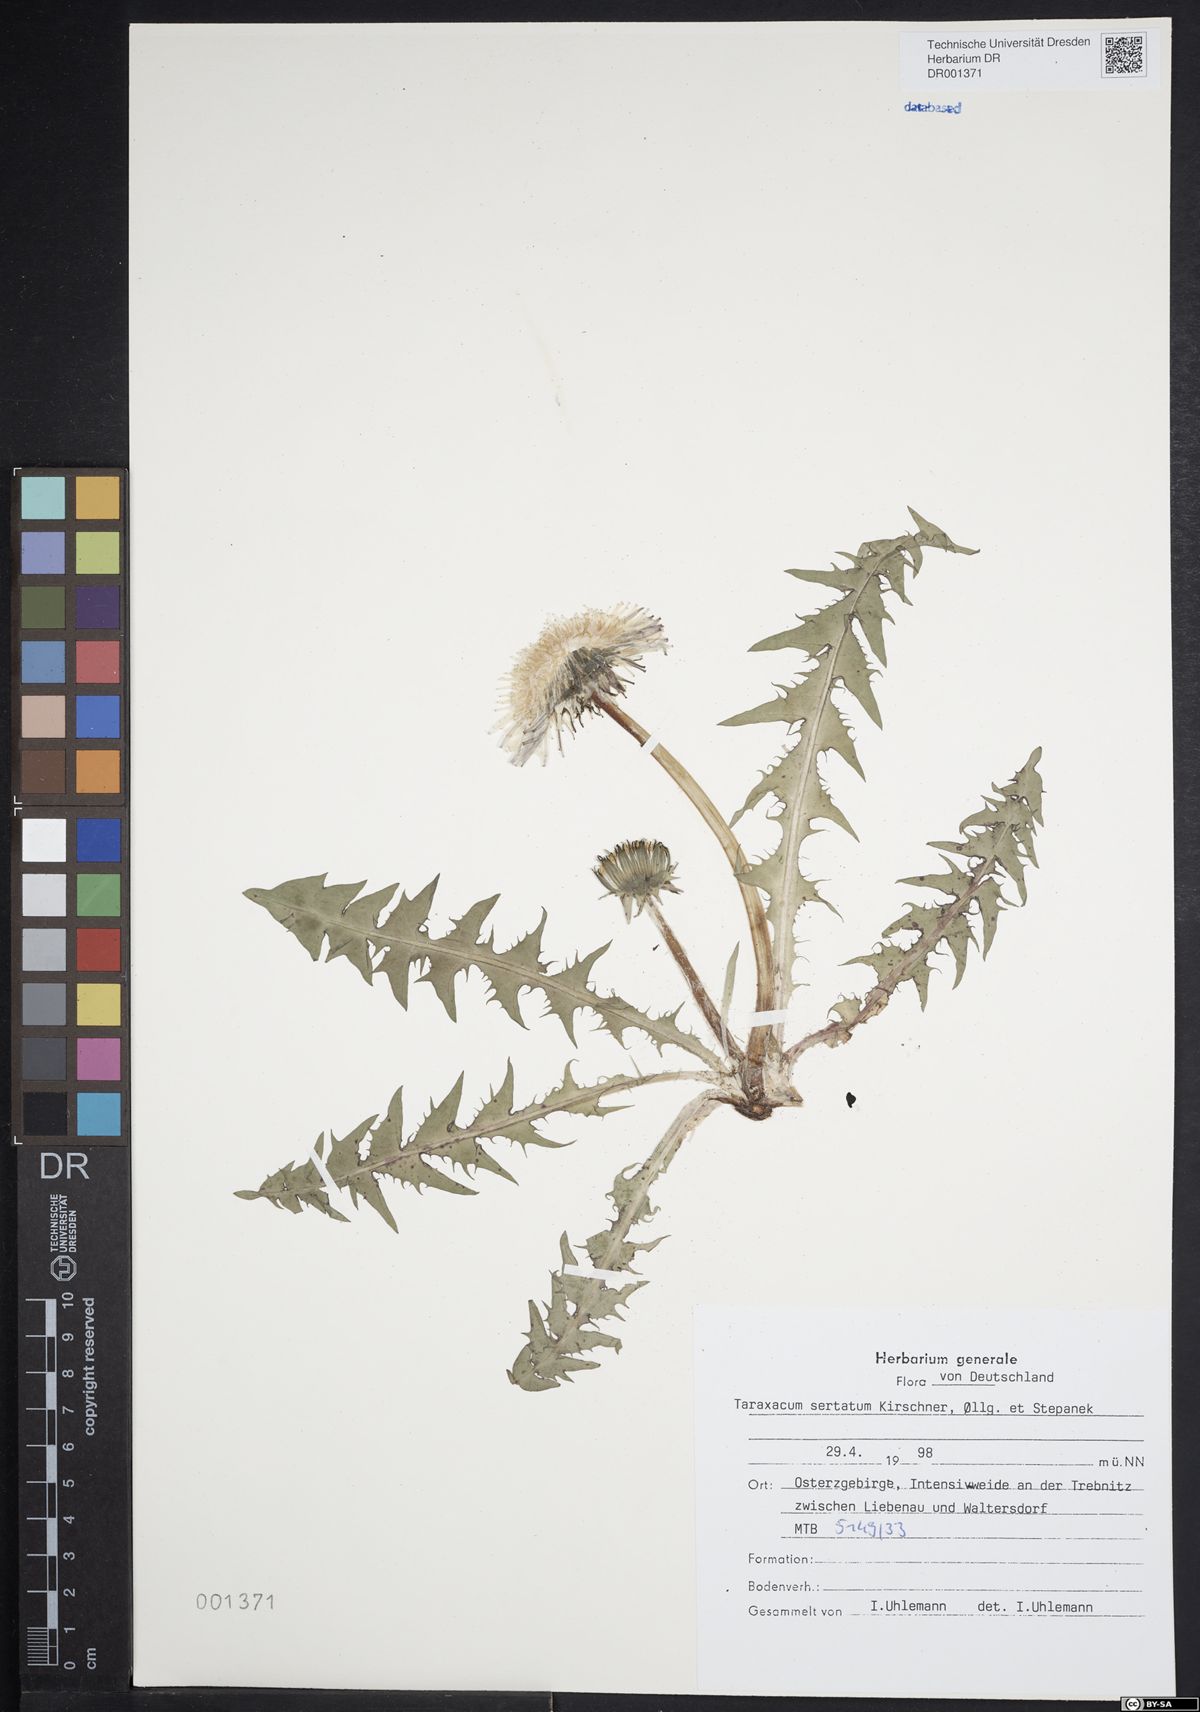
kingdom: Plantae
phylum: Tracheophyta
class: Magnoliopsida
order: Asterales
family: Asteraceae
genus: Taraxacum
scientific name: Taraxacum sertatum
